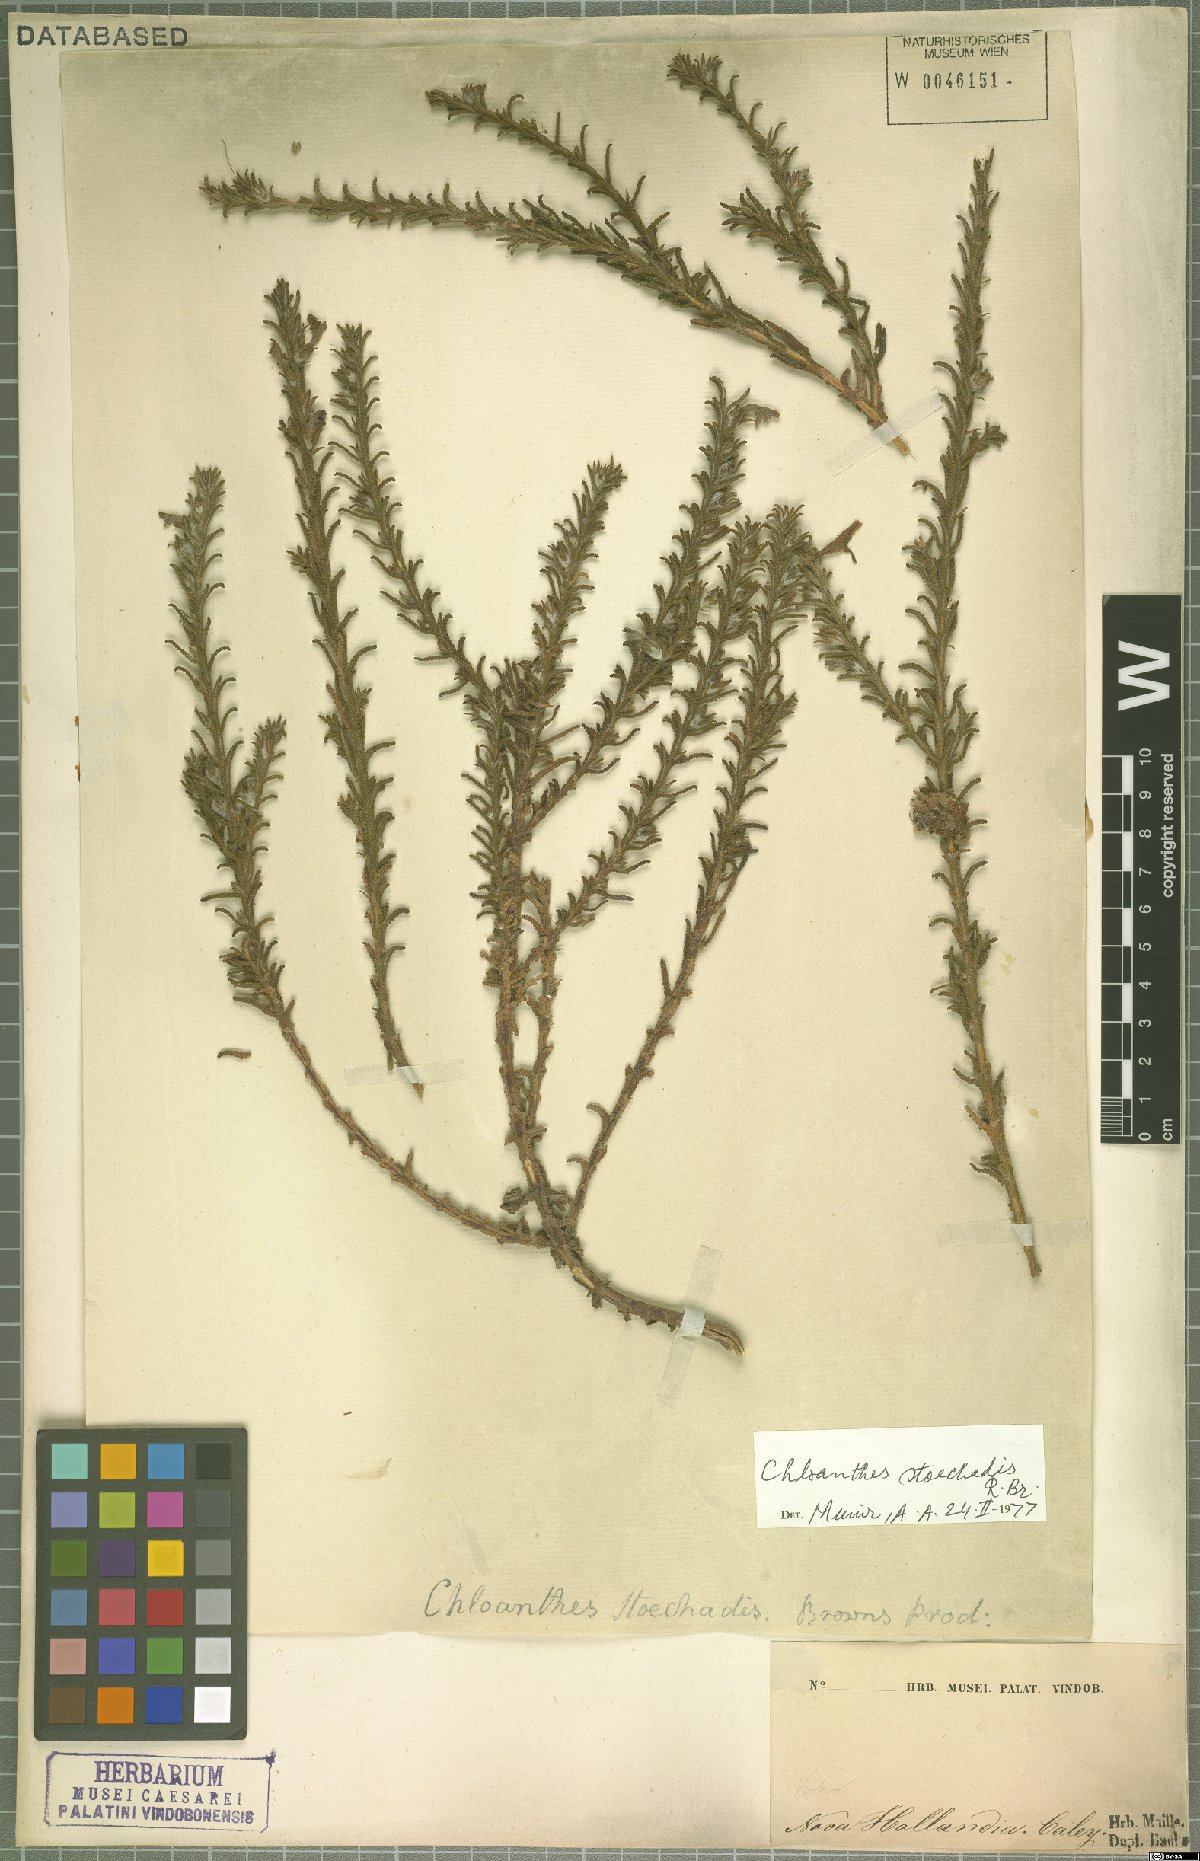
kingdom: Plantae
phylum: Tracheophyta
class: Magnoliopsida
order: Lamiales
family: Lamiaceae
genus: Chloanthes
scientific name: Chloanthes stoechadis
